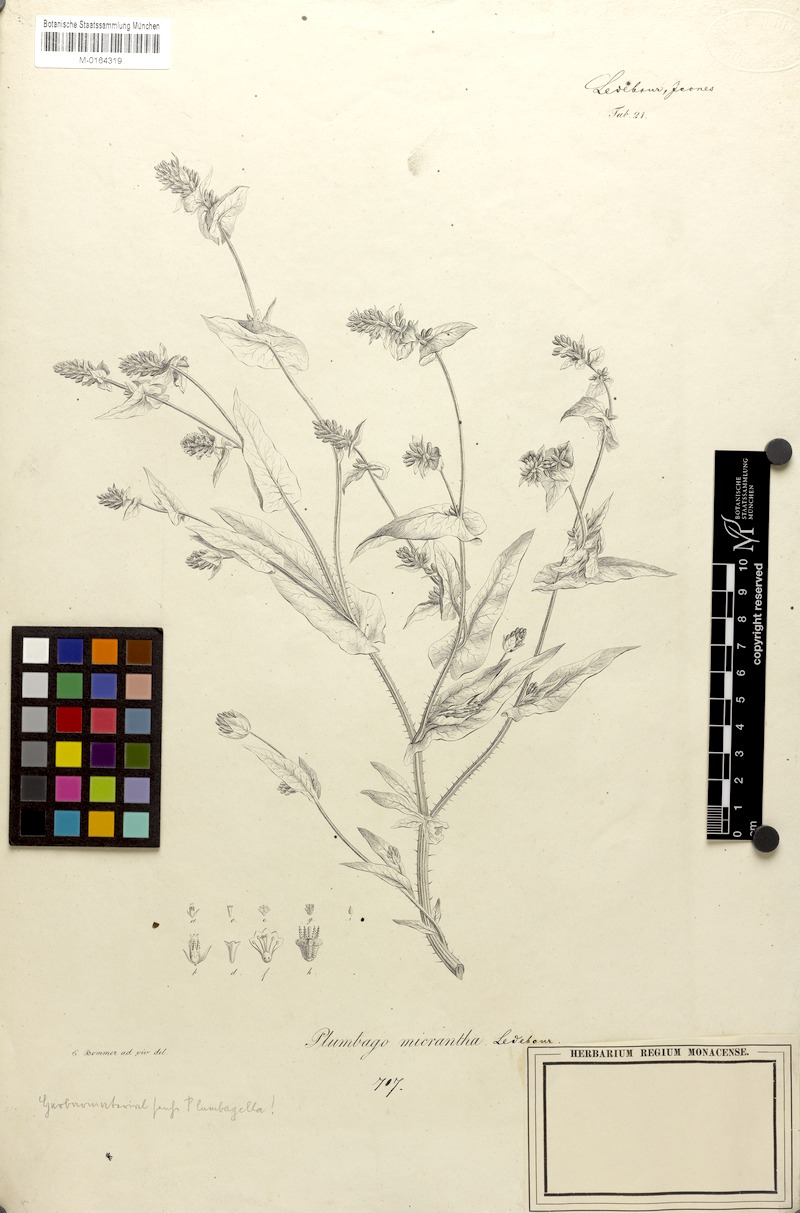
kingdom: Plantae
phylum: Tracheophyta
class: Magnoliopsida
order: Caryophyllales
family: Plumbaginaceae
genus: Plumbagella
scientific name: Plumbagella micrantha
